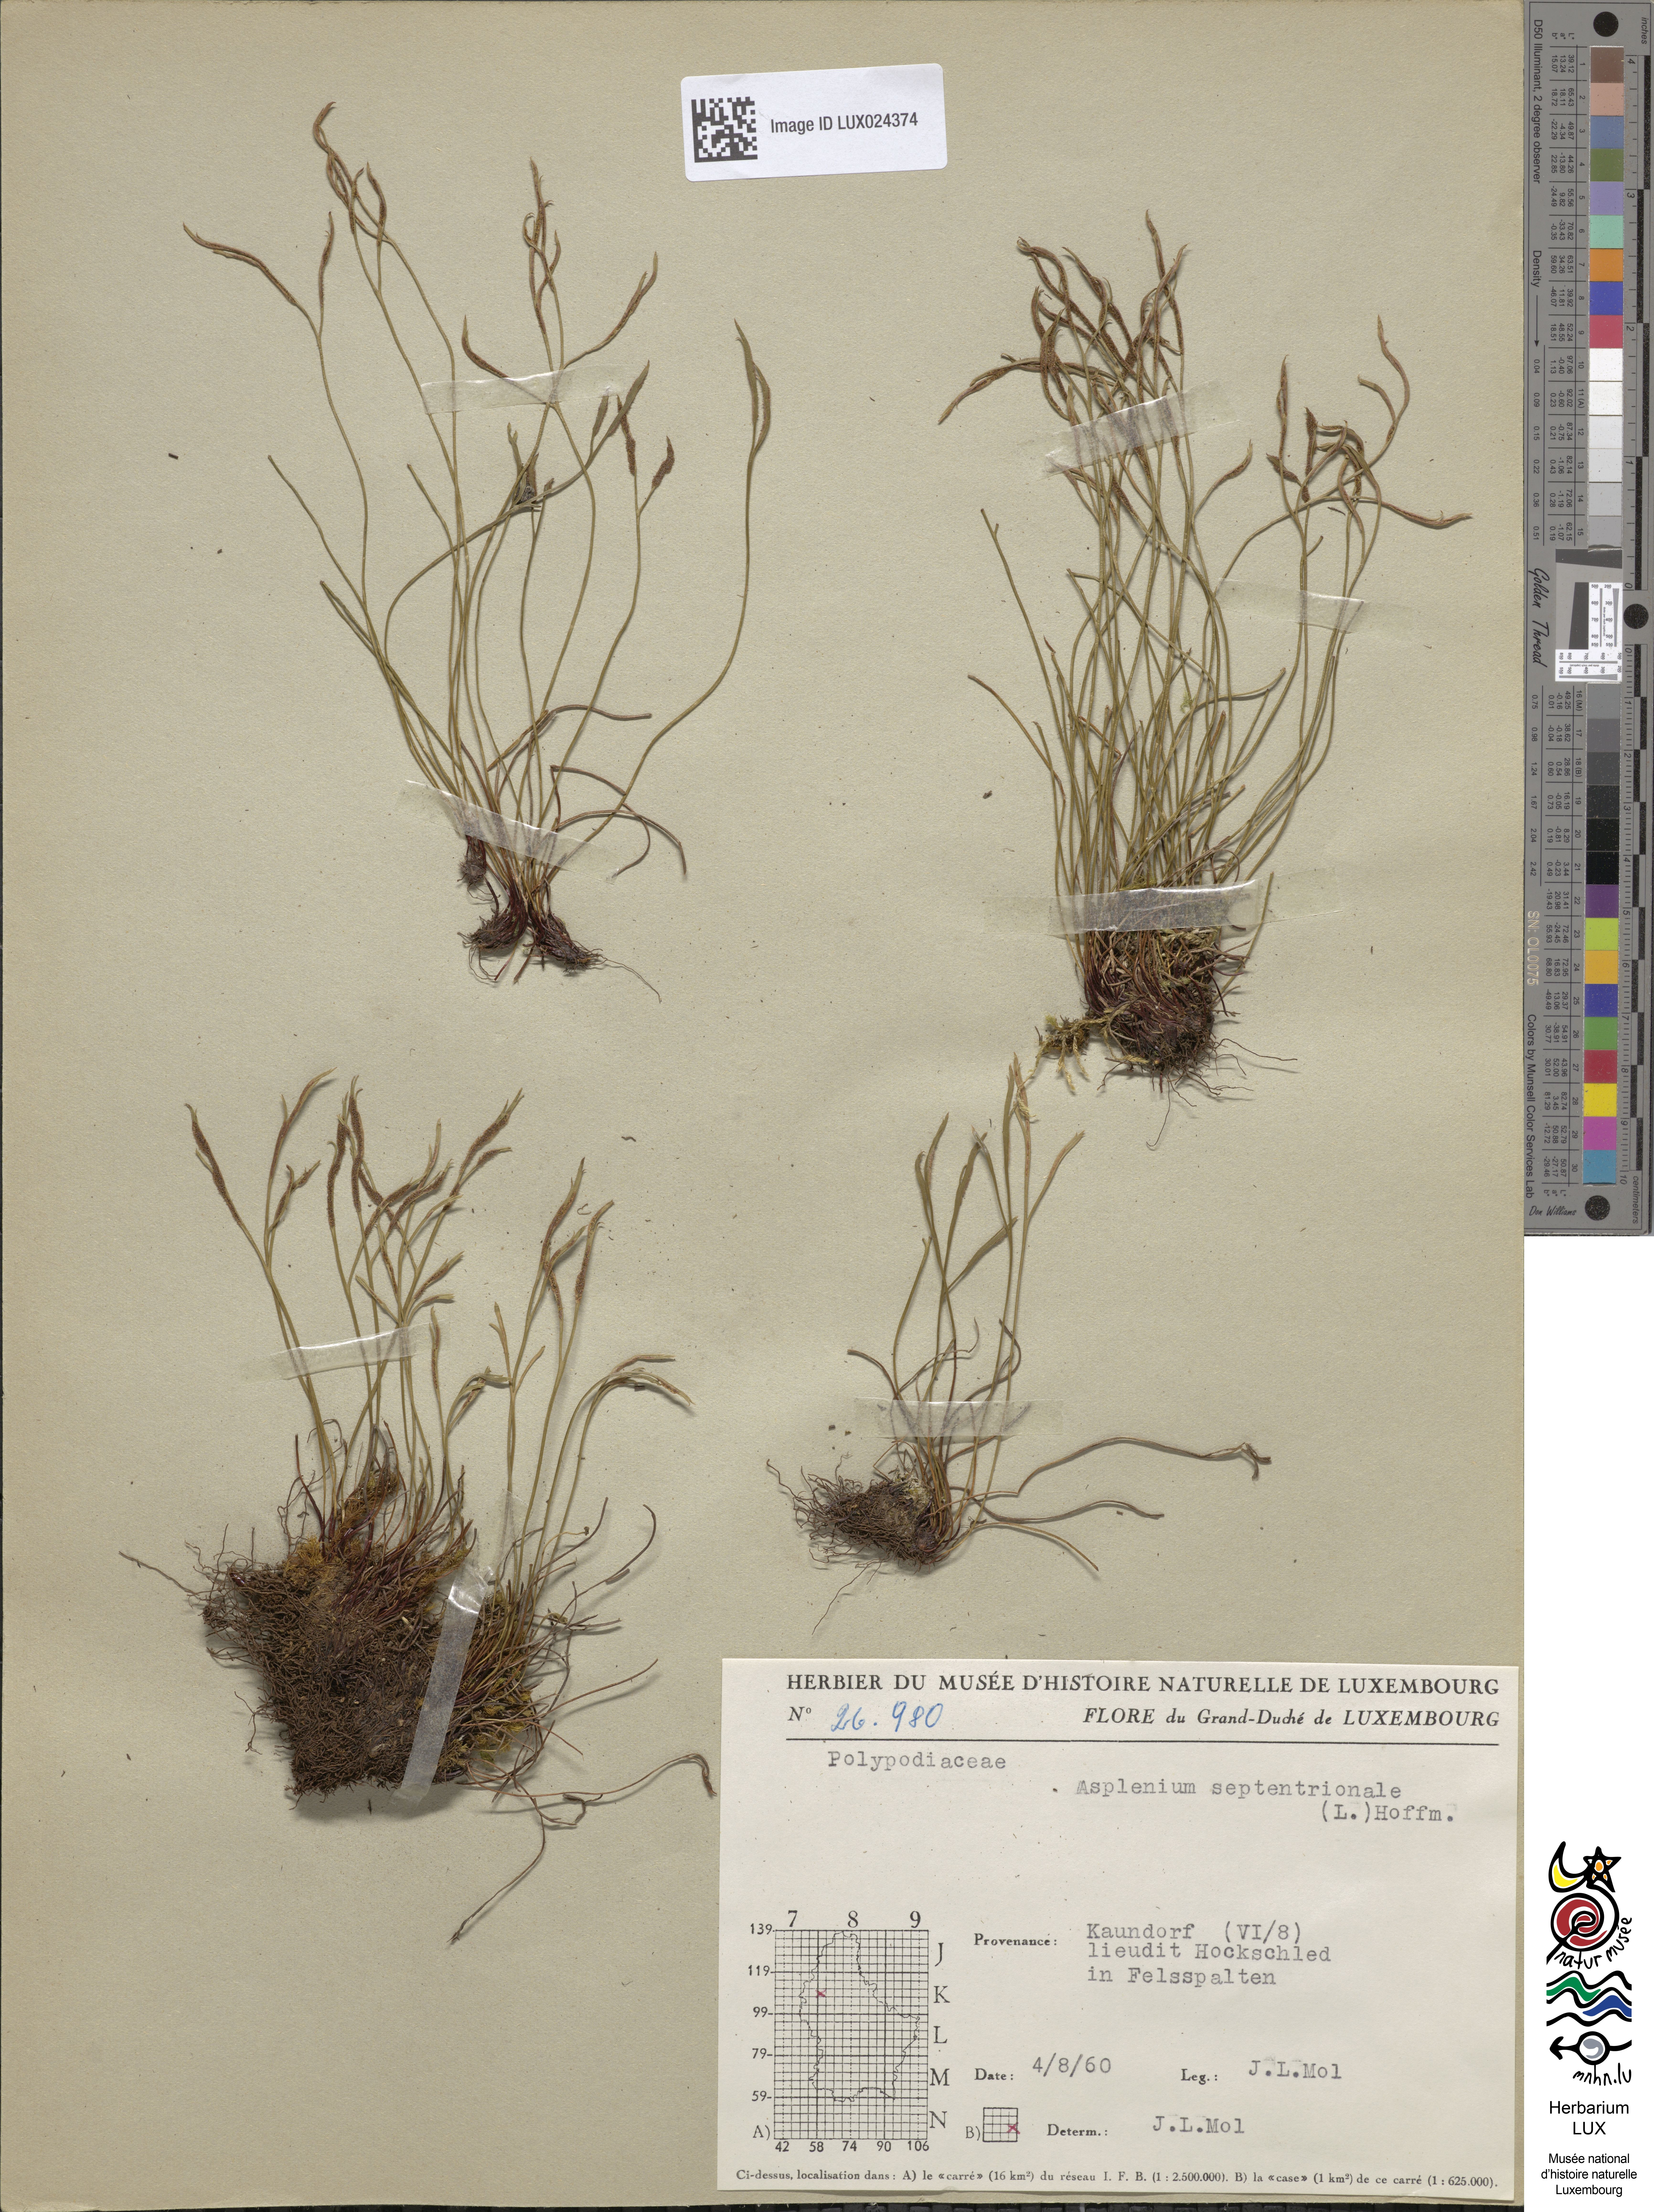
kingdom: Plantae
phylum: Tracheophyta
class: Polypodiopsida
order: Polypodiales
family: Aspleniaceae
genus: Asplenium
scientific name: Asplenium septentrionale
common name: Forked spleenwort
